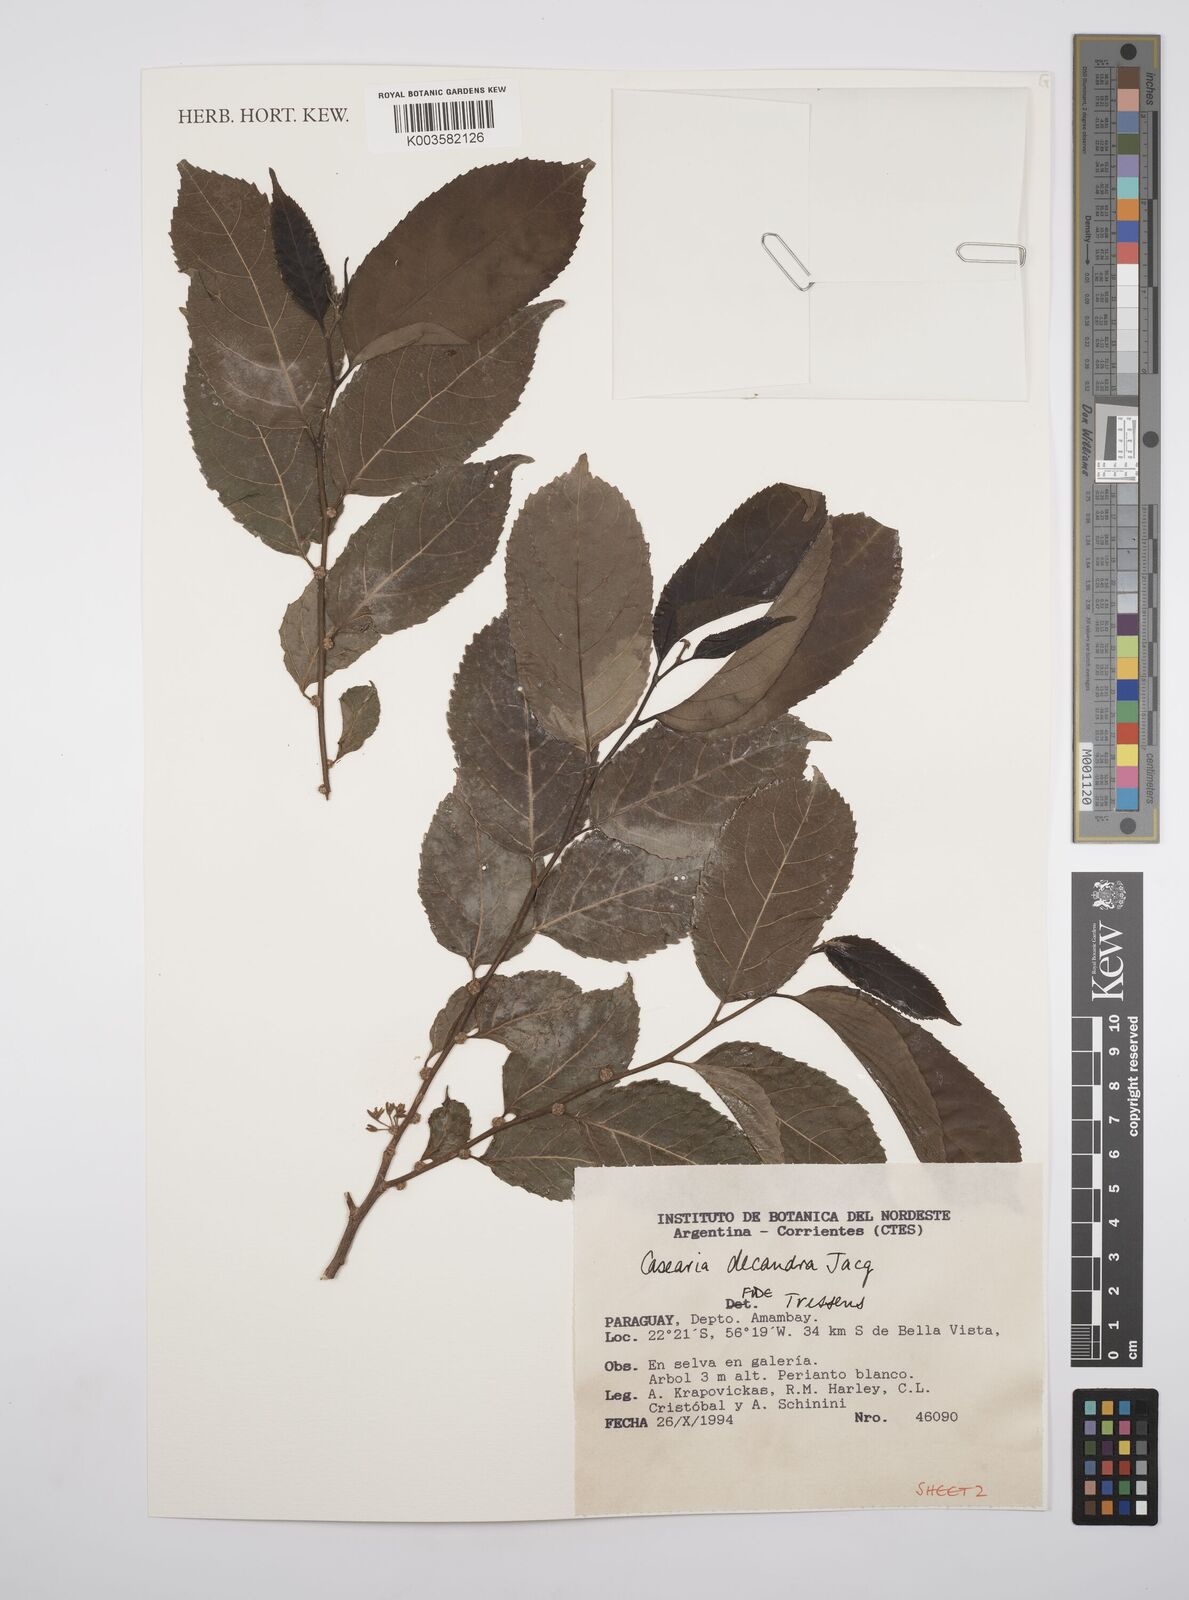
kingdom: Plantae
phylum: Tracheophyta
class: Magnoliopsida
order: Malpighiales
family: Salicaceae
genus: Casearia
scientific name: Casearia
